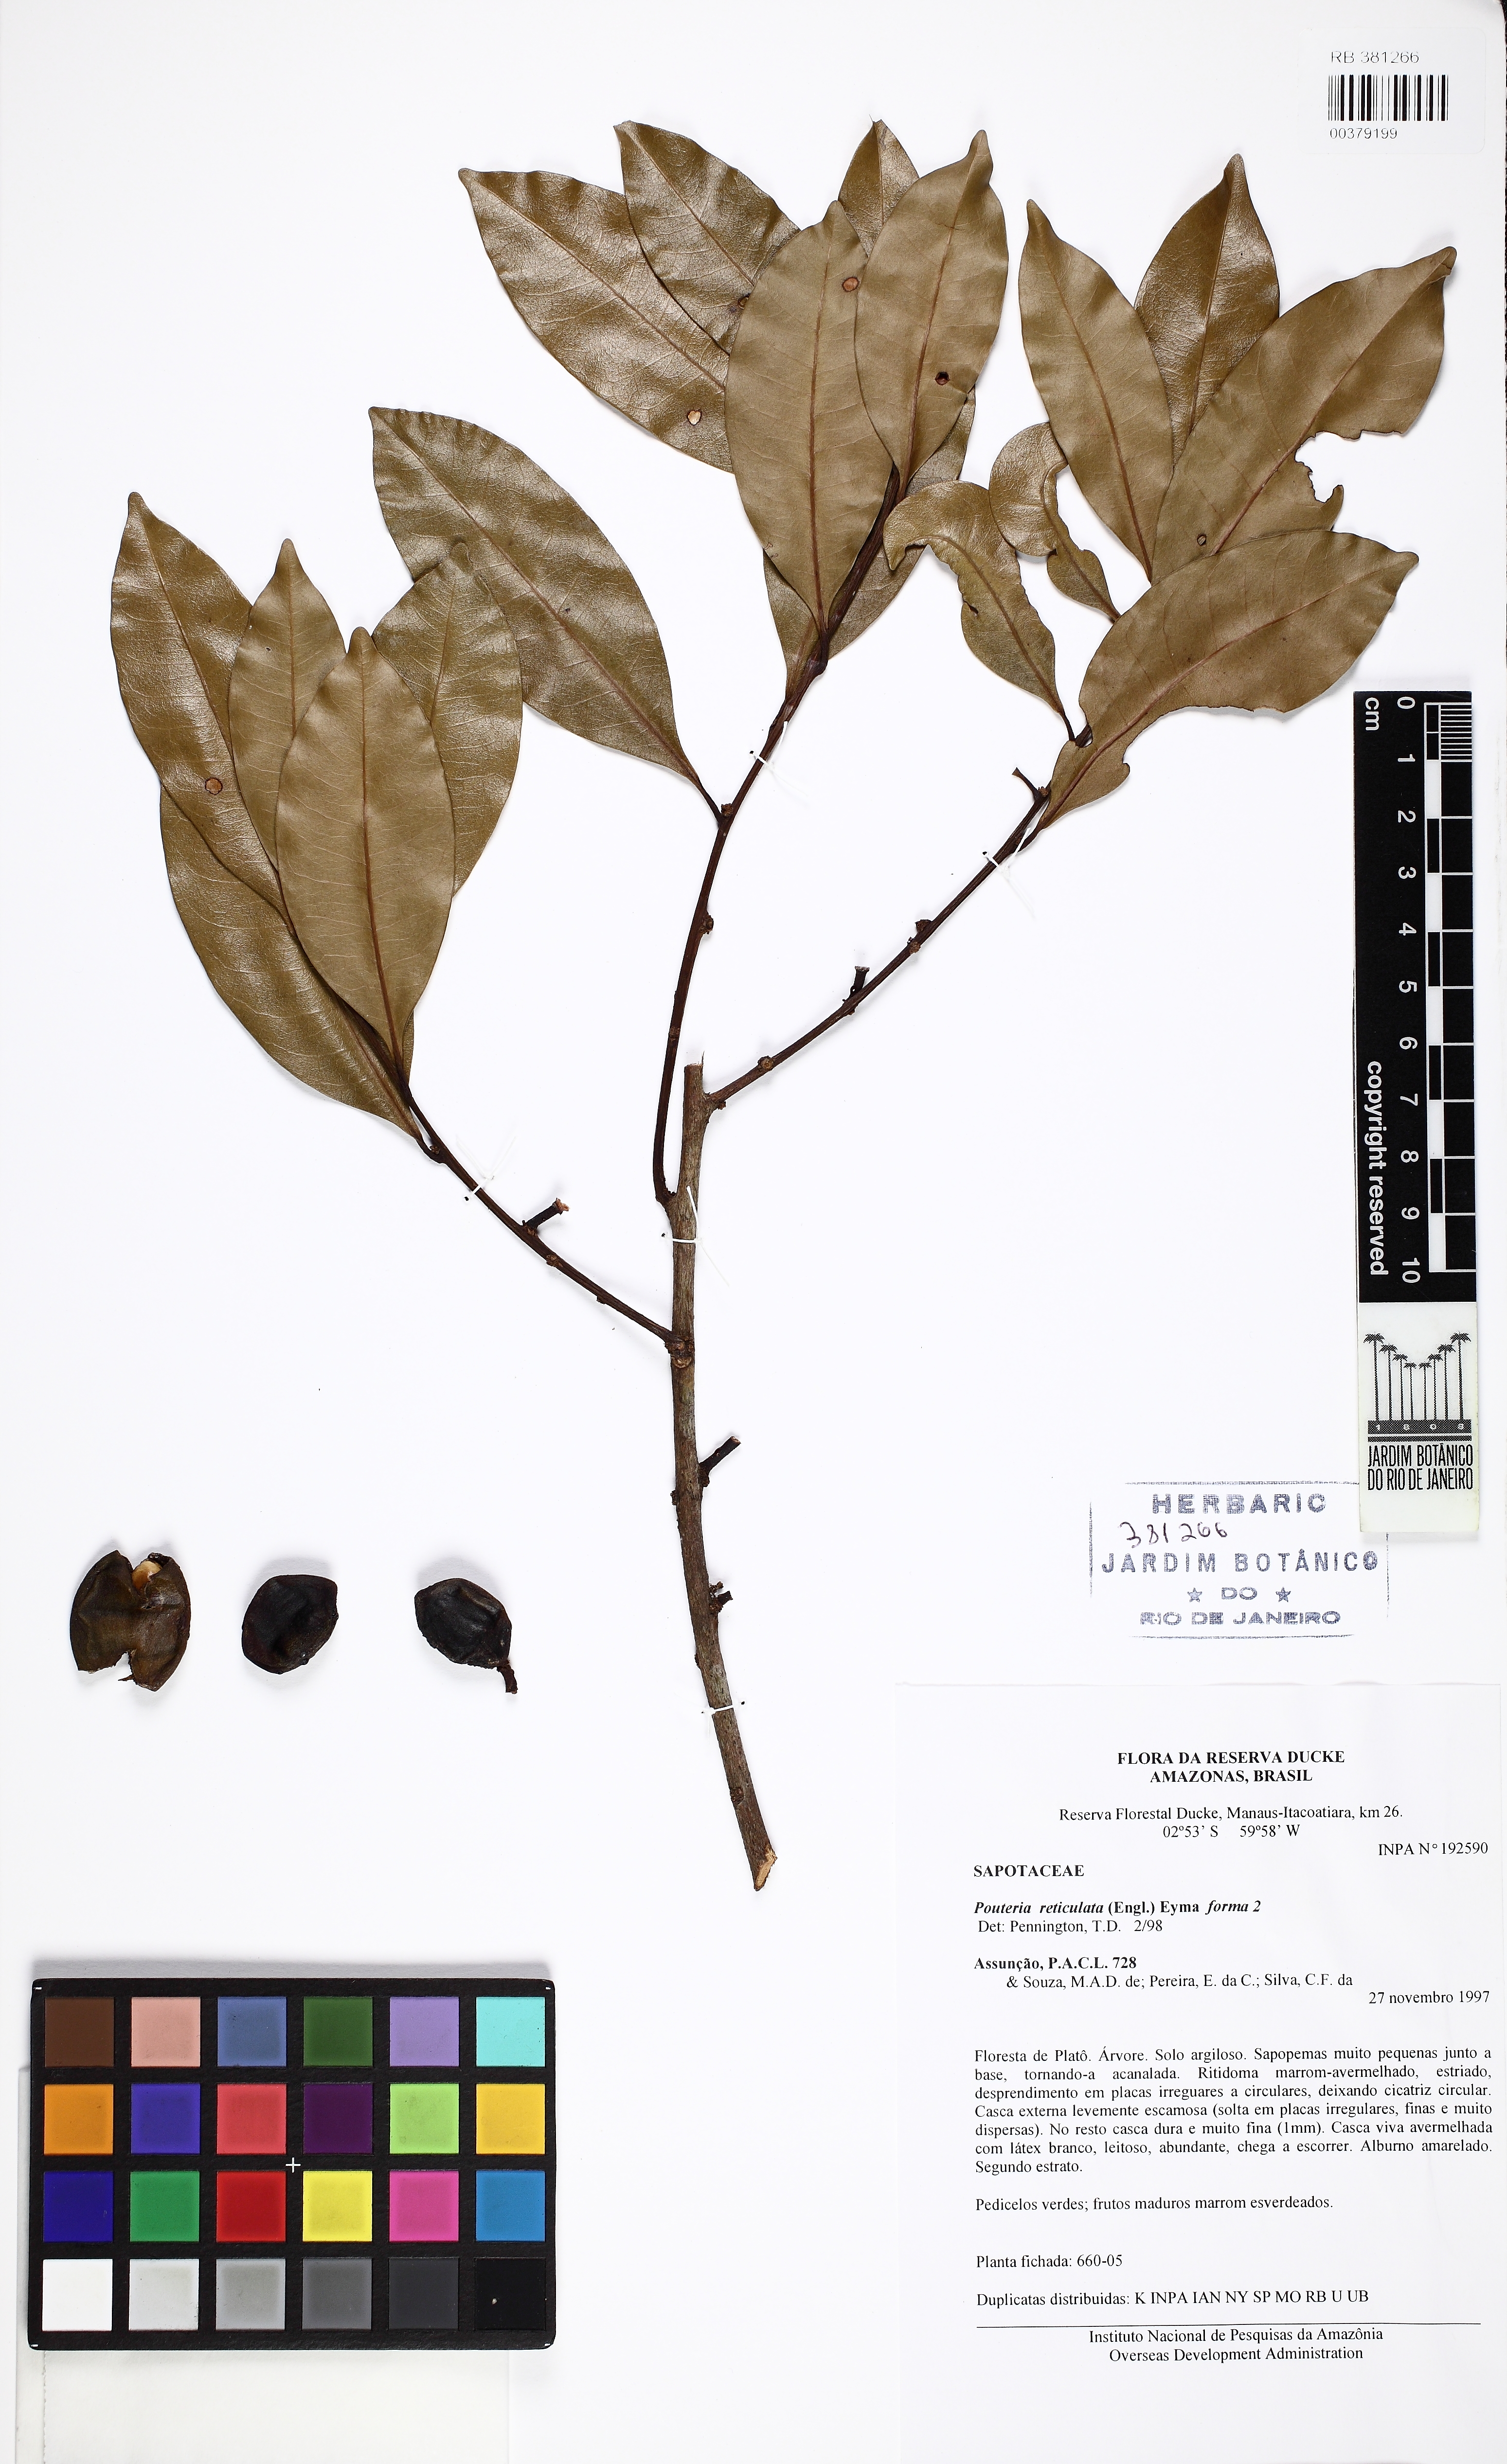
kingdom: Plantae
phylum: Tracheophyta
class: Magnoliopsida
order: Ericales
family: Sapotaceae
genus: Pouteria
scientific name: Pouteria reticulata
